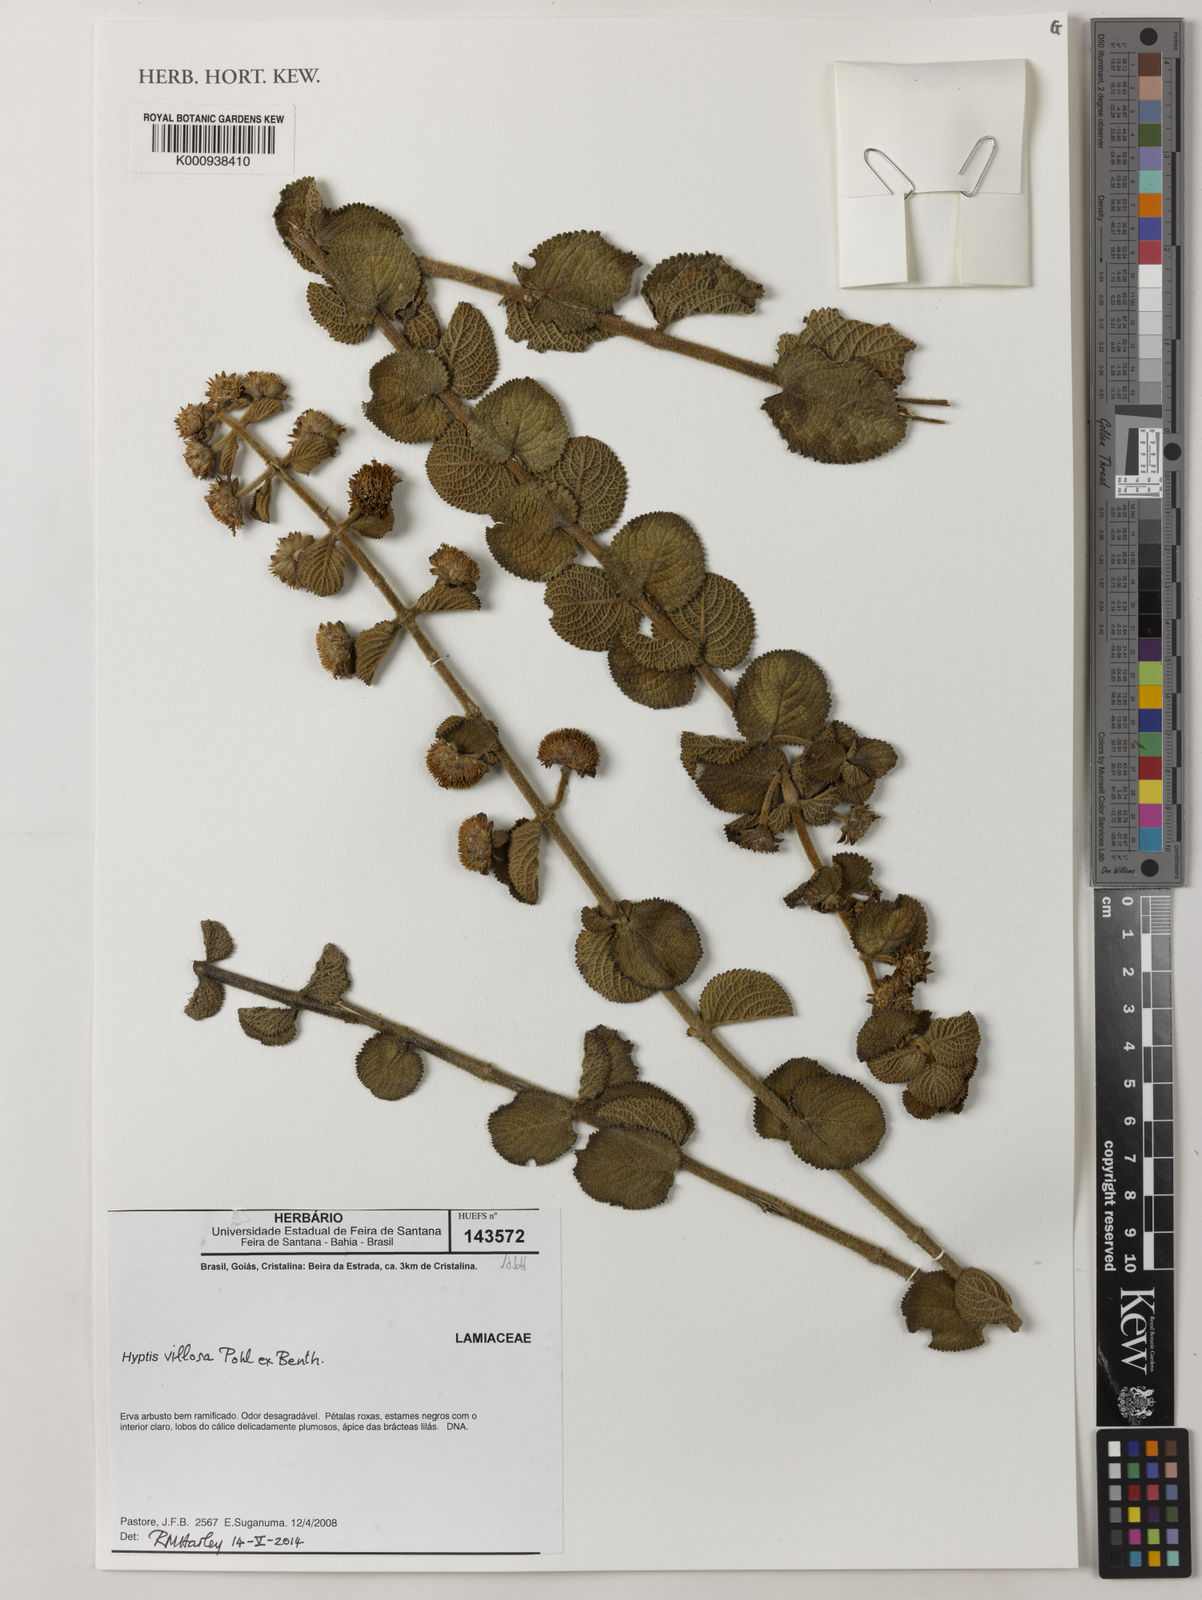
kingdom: Plantae
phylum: Tracheophyta
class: Magnoliopsida
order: Lamiales
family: Lamiaceae
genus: Hyptis
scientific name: Hyptis villosa
